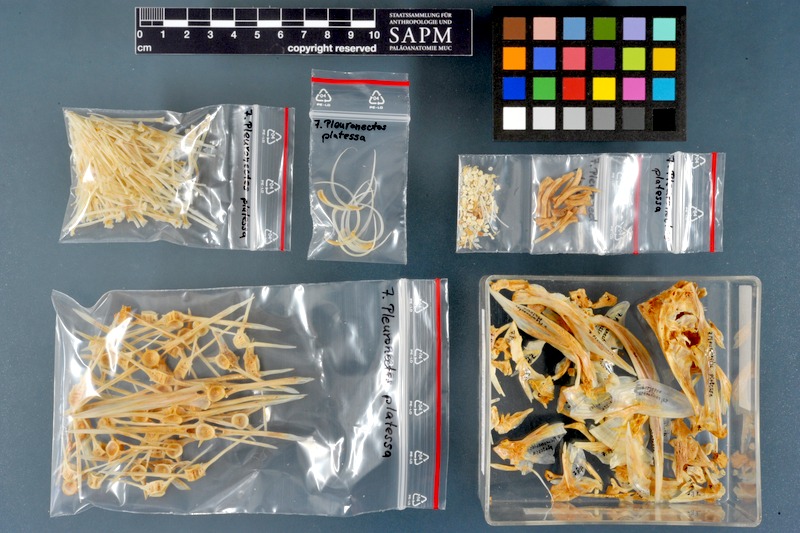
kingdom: Animalia
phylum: Chordata
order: Pleuronectiformes
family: Pleuronectidae
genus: Pleuronectes
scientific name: Pleuronectes platessa
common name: Plaice
